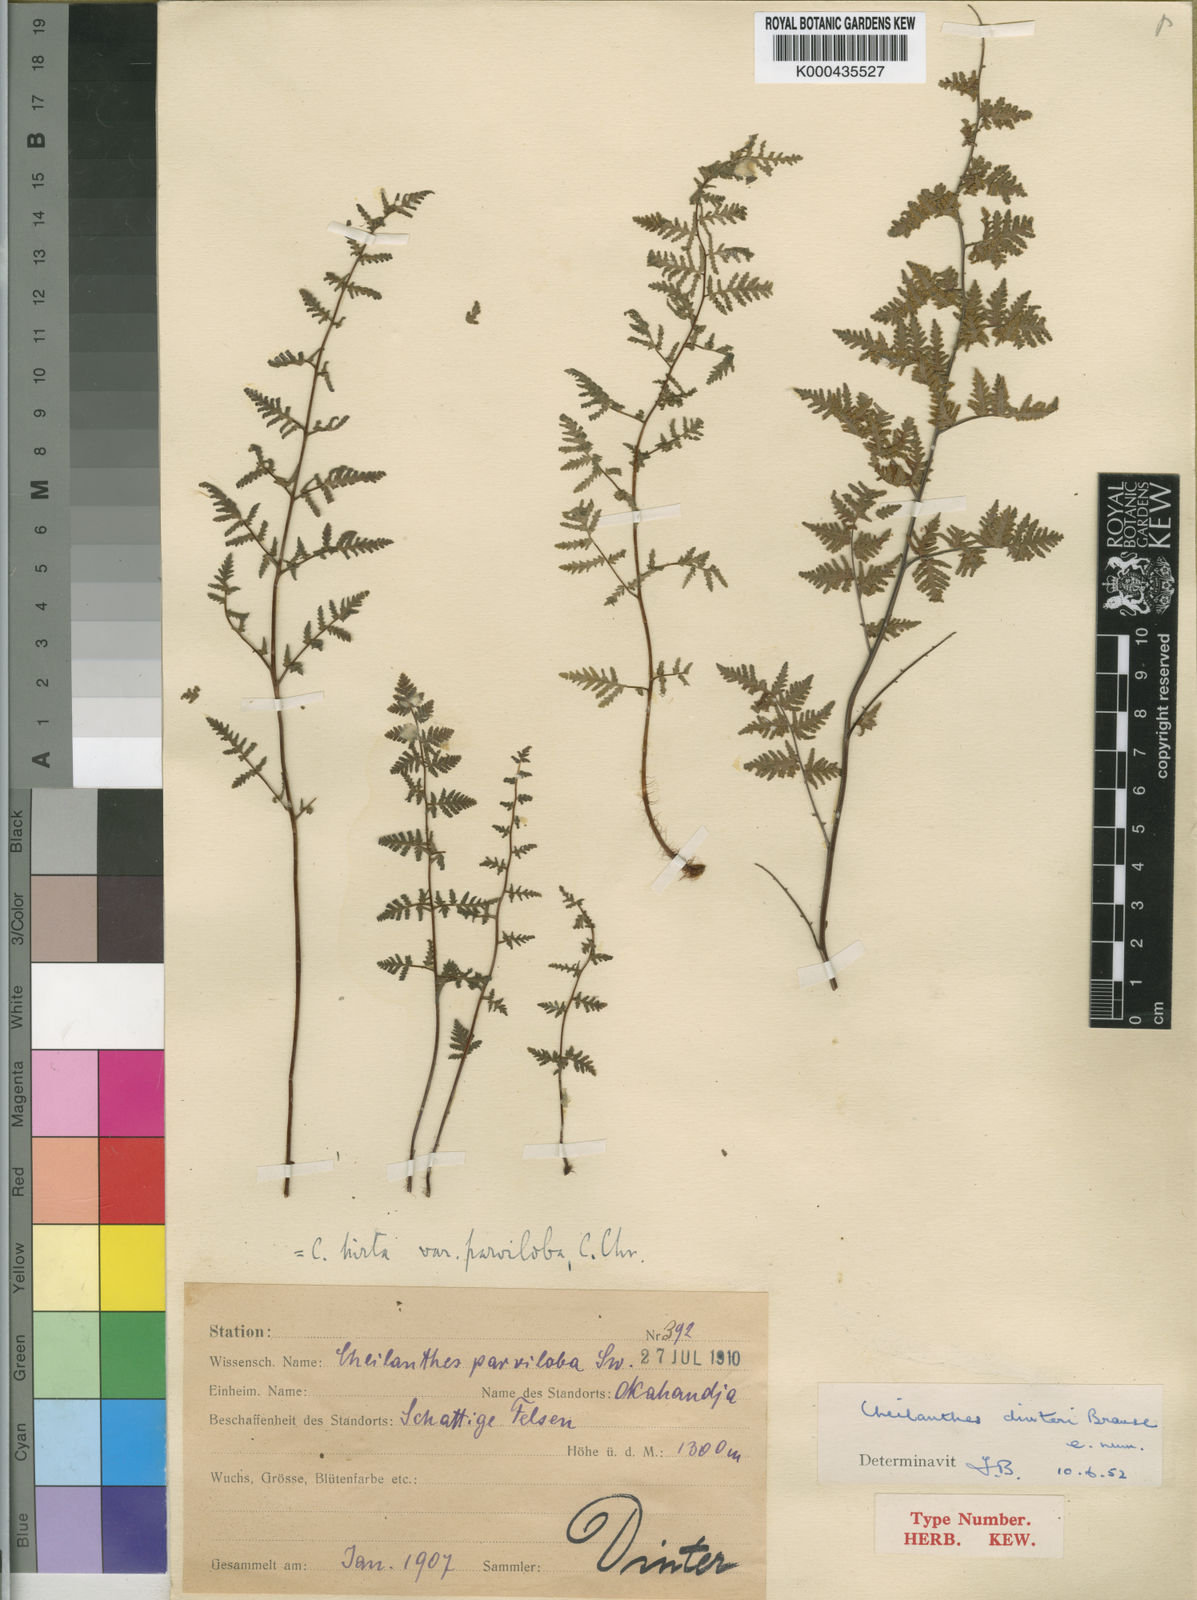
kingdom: Plantae
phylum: Tracheophyta
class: Polypodiopsida
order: Polypodiales
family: Pteridaceae
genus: Cheilanthes
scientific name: Cheilanthes dinteri
